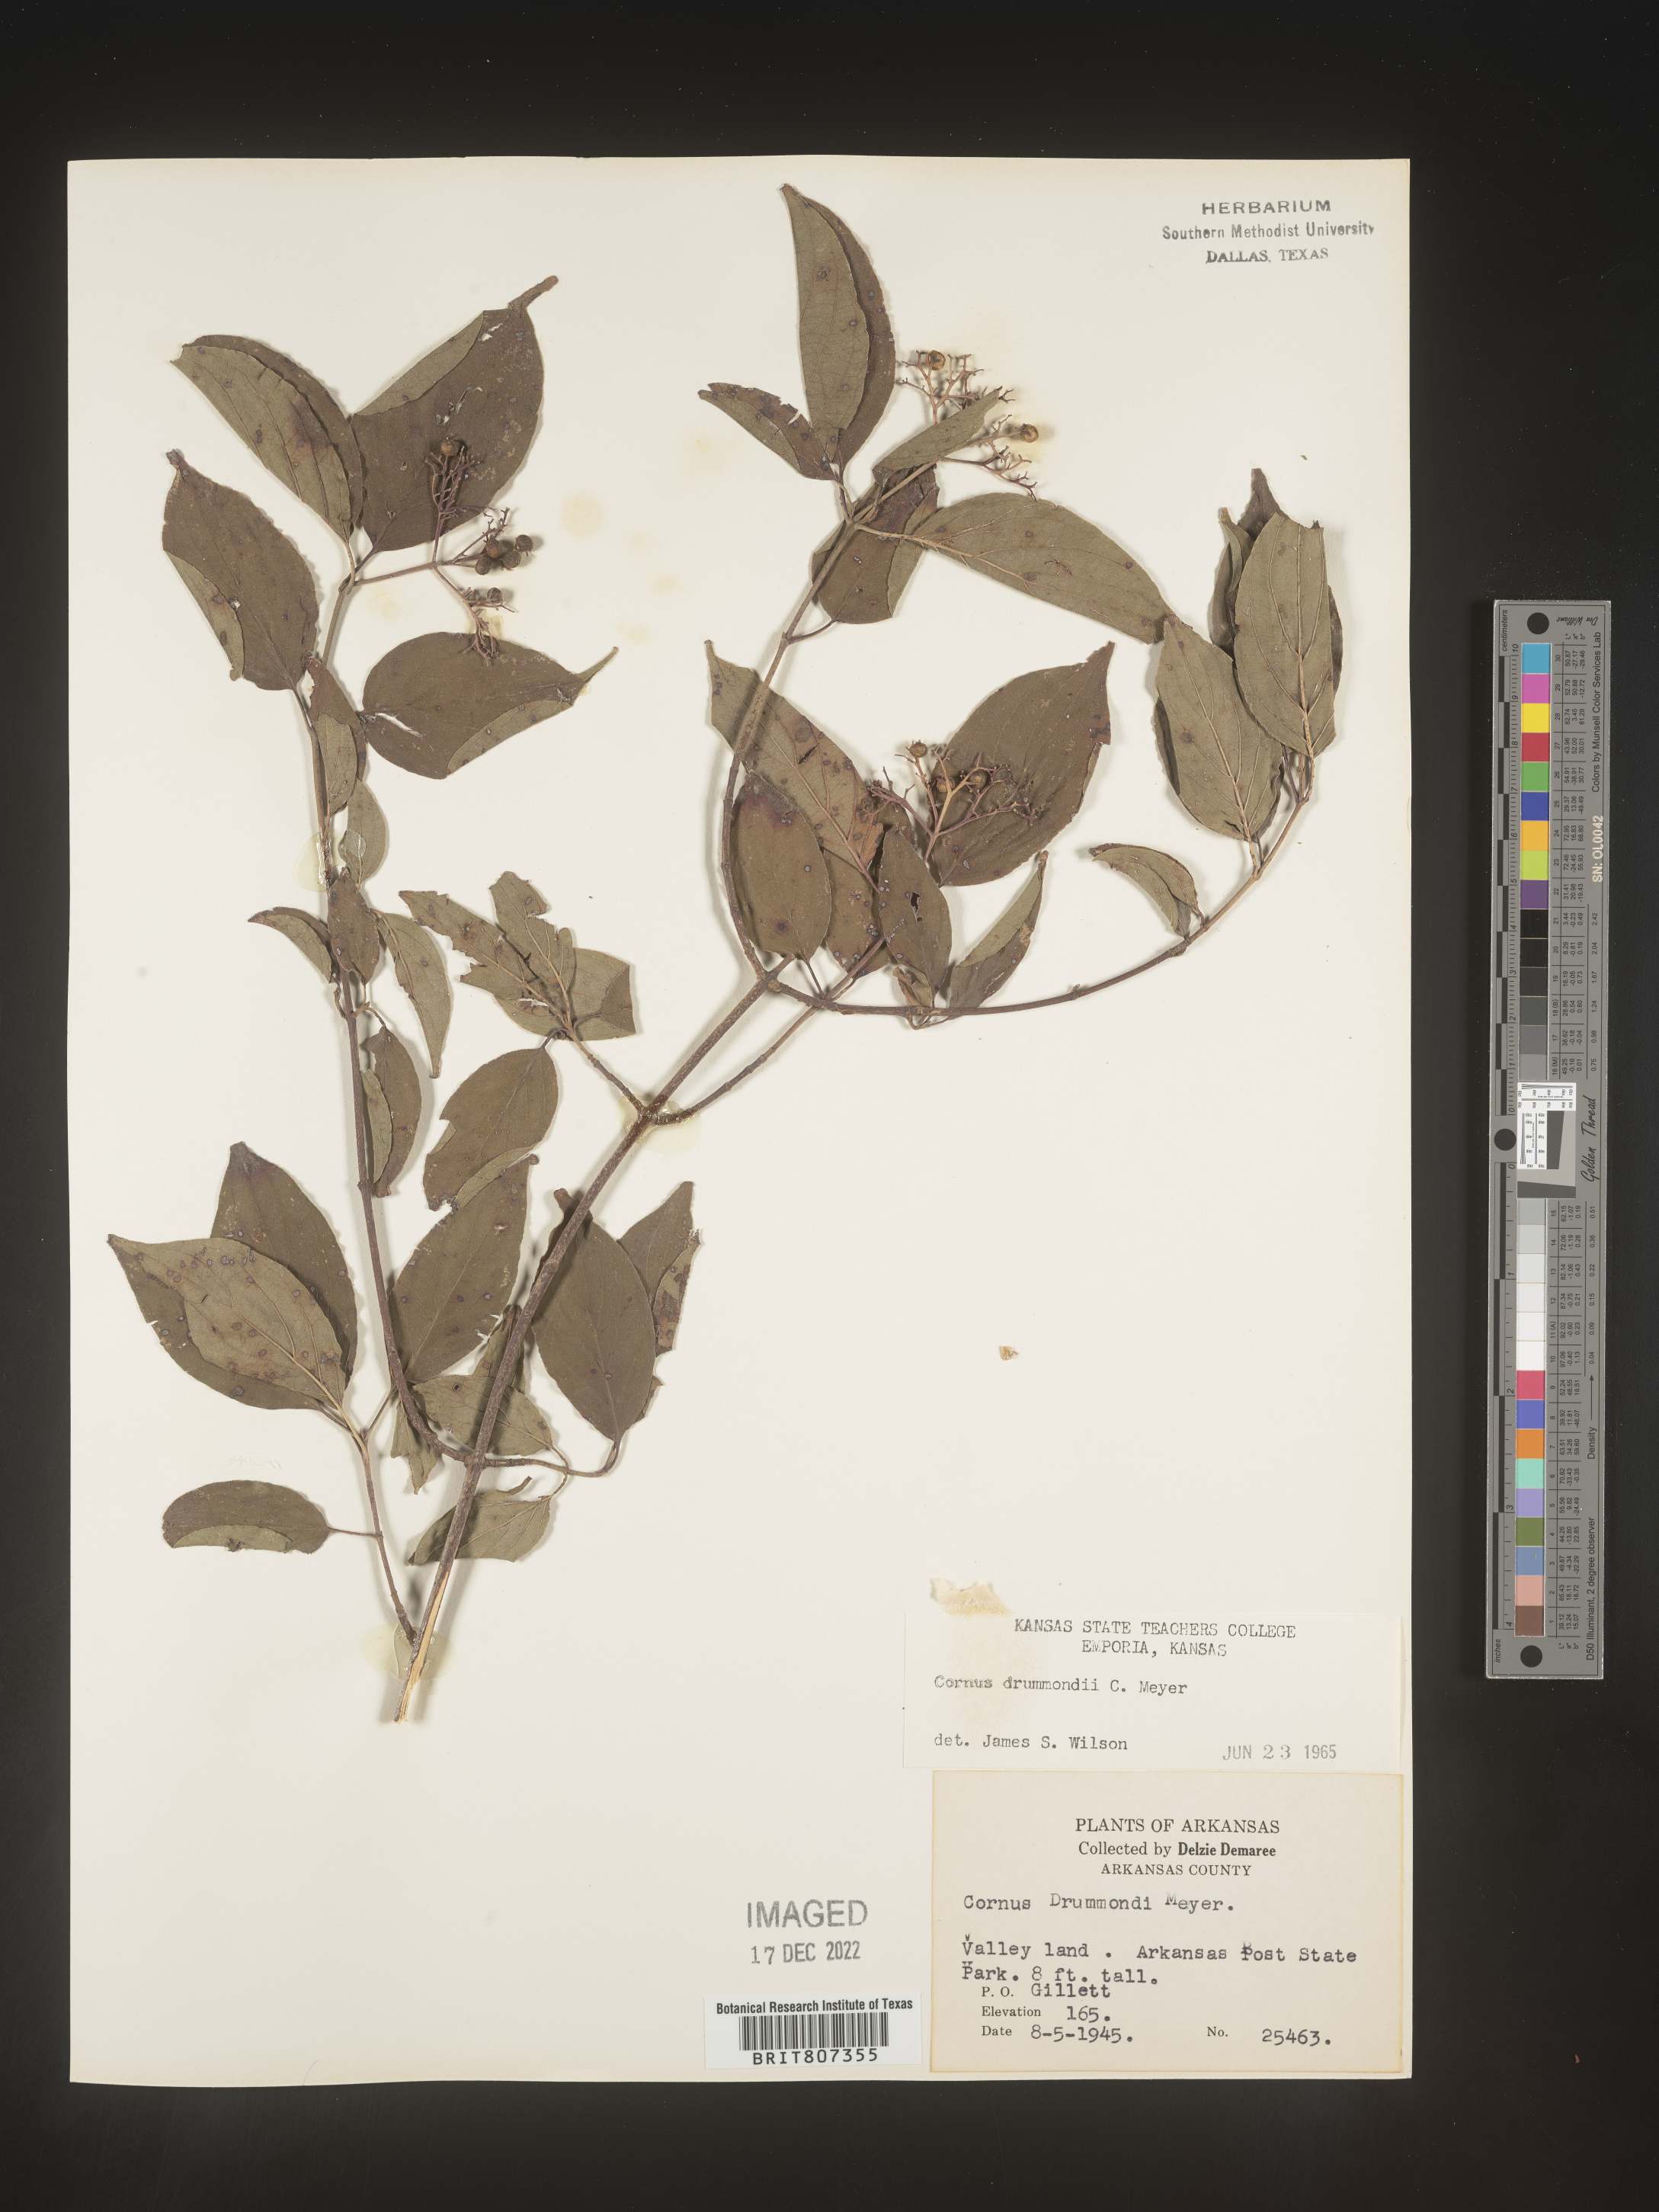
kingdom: Plantae
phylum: Tracheophyta
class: Magnoliopsida
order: Cornales
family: Cornaceae
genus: Cornus
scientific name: Cornus drummondii
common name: Rough-leaf dogwood
